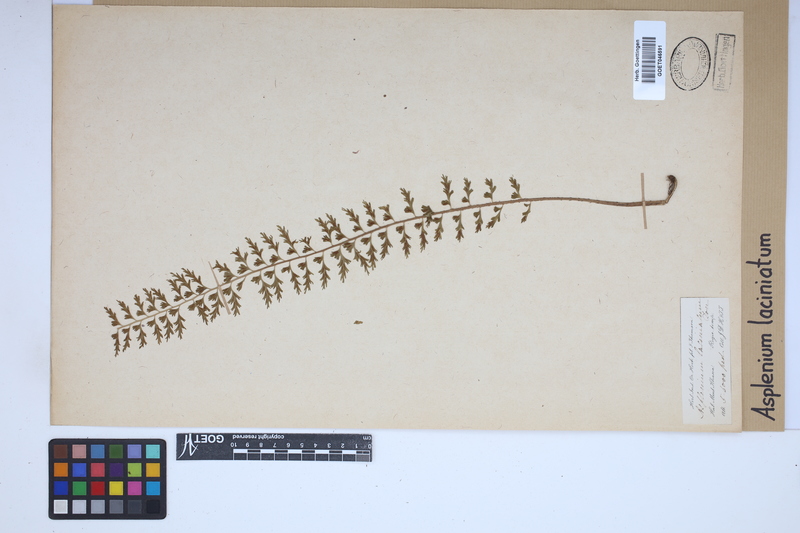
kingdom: Plantae
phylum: Tracheophyta
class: Polypodiopsida
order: Polypodiales
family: Aspleniaceae
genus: Asplenium
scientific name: Asplenium laciniatum
